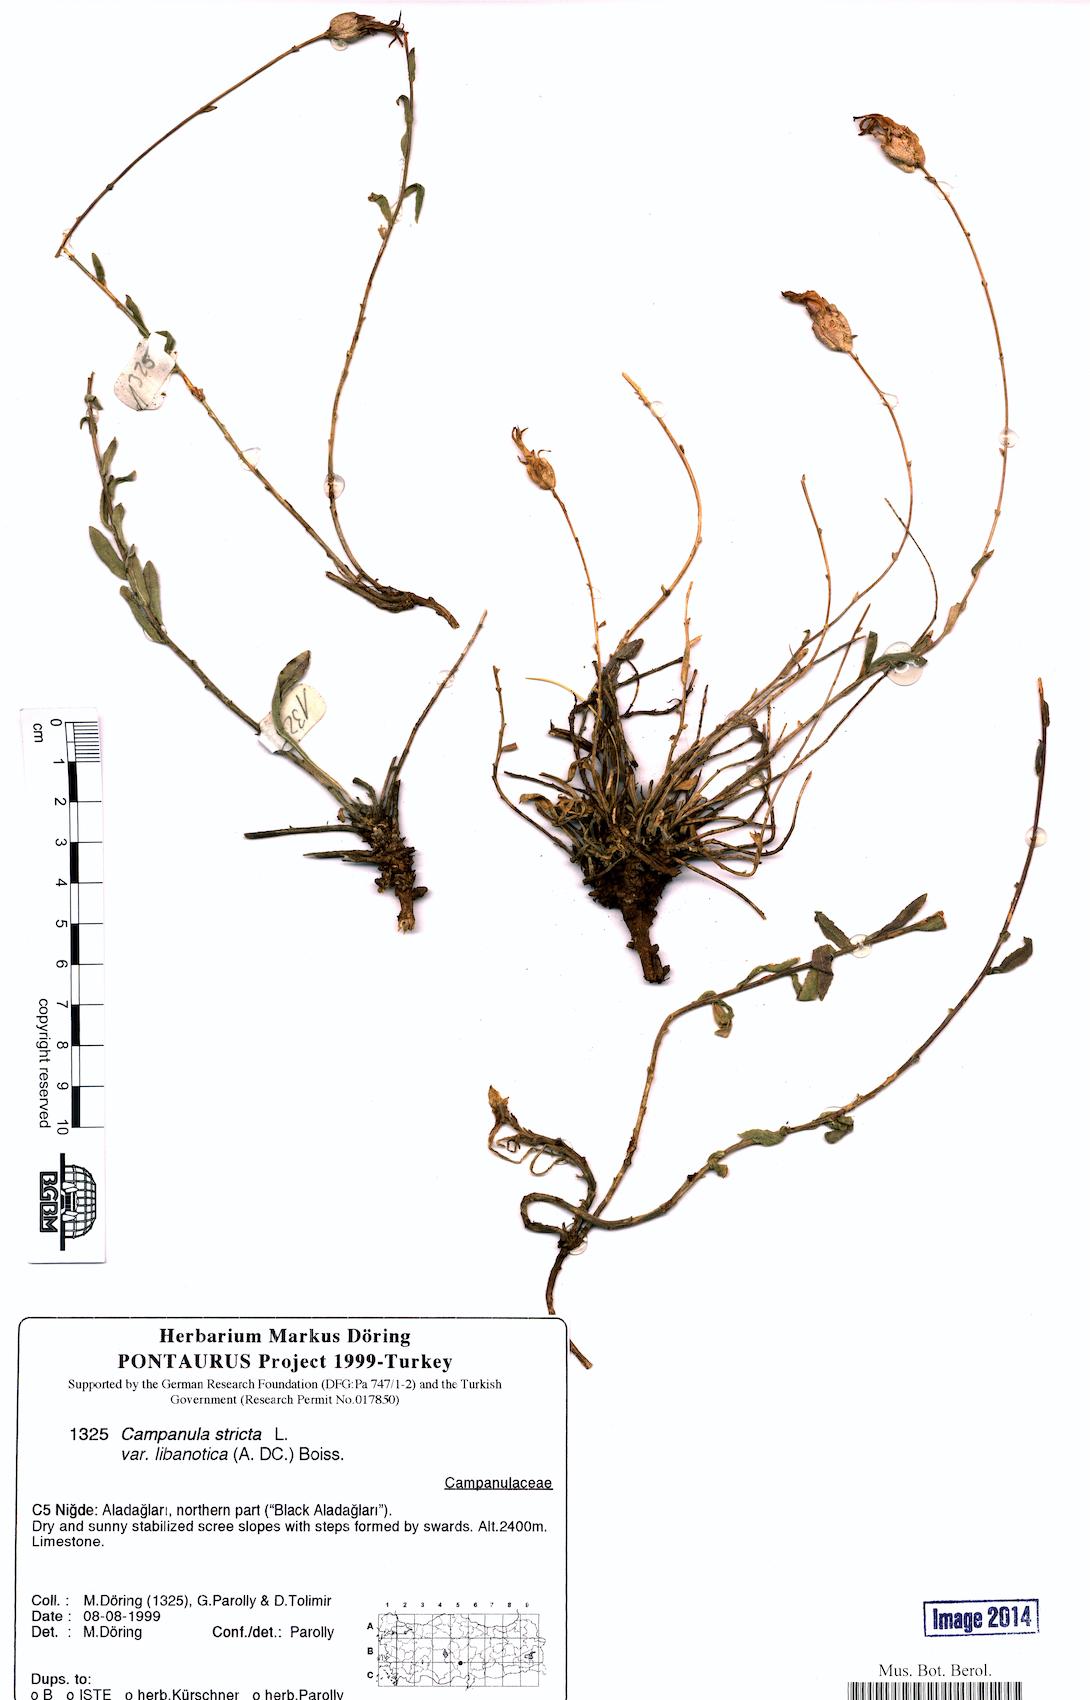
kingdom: Plantae
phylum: Tracheophyta
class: Magnoliopsida
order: Asterales
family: Campanulaceae
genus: Campanula
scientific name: Campanula stricta
